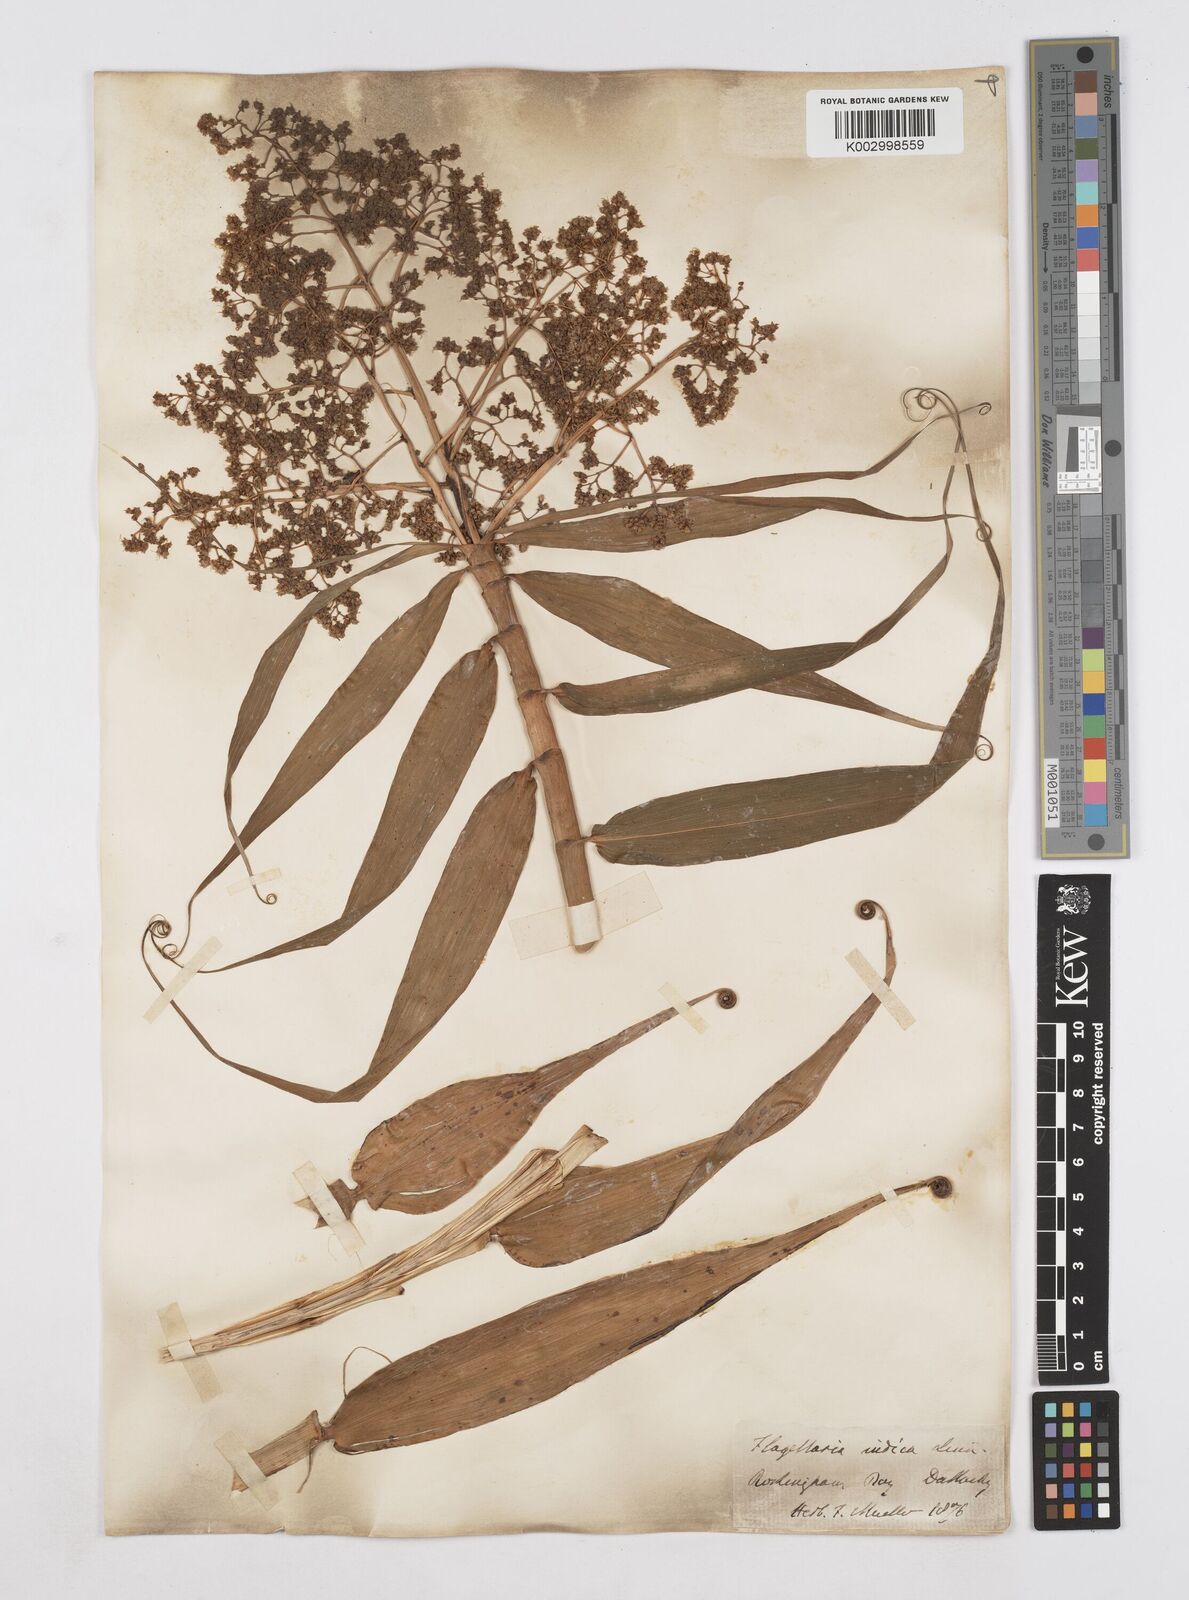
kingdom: Plantae
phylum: Tracheophyta
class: Liliopsida
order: Poales
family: Flagellariaceae
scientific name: Flagellariaceae
